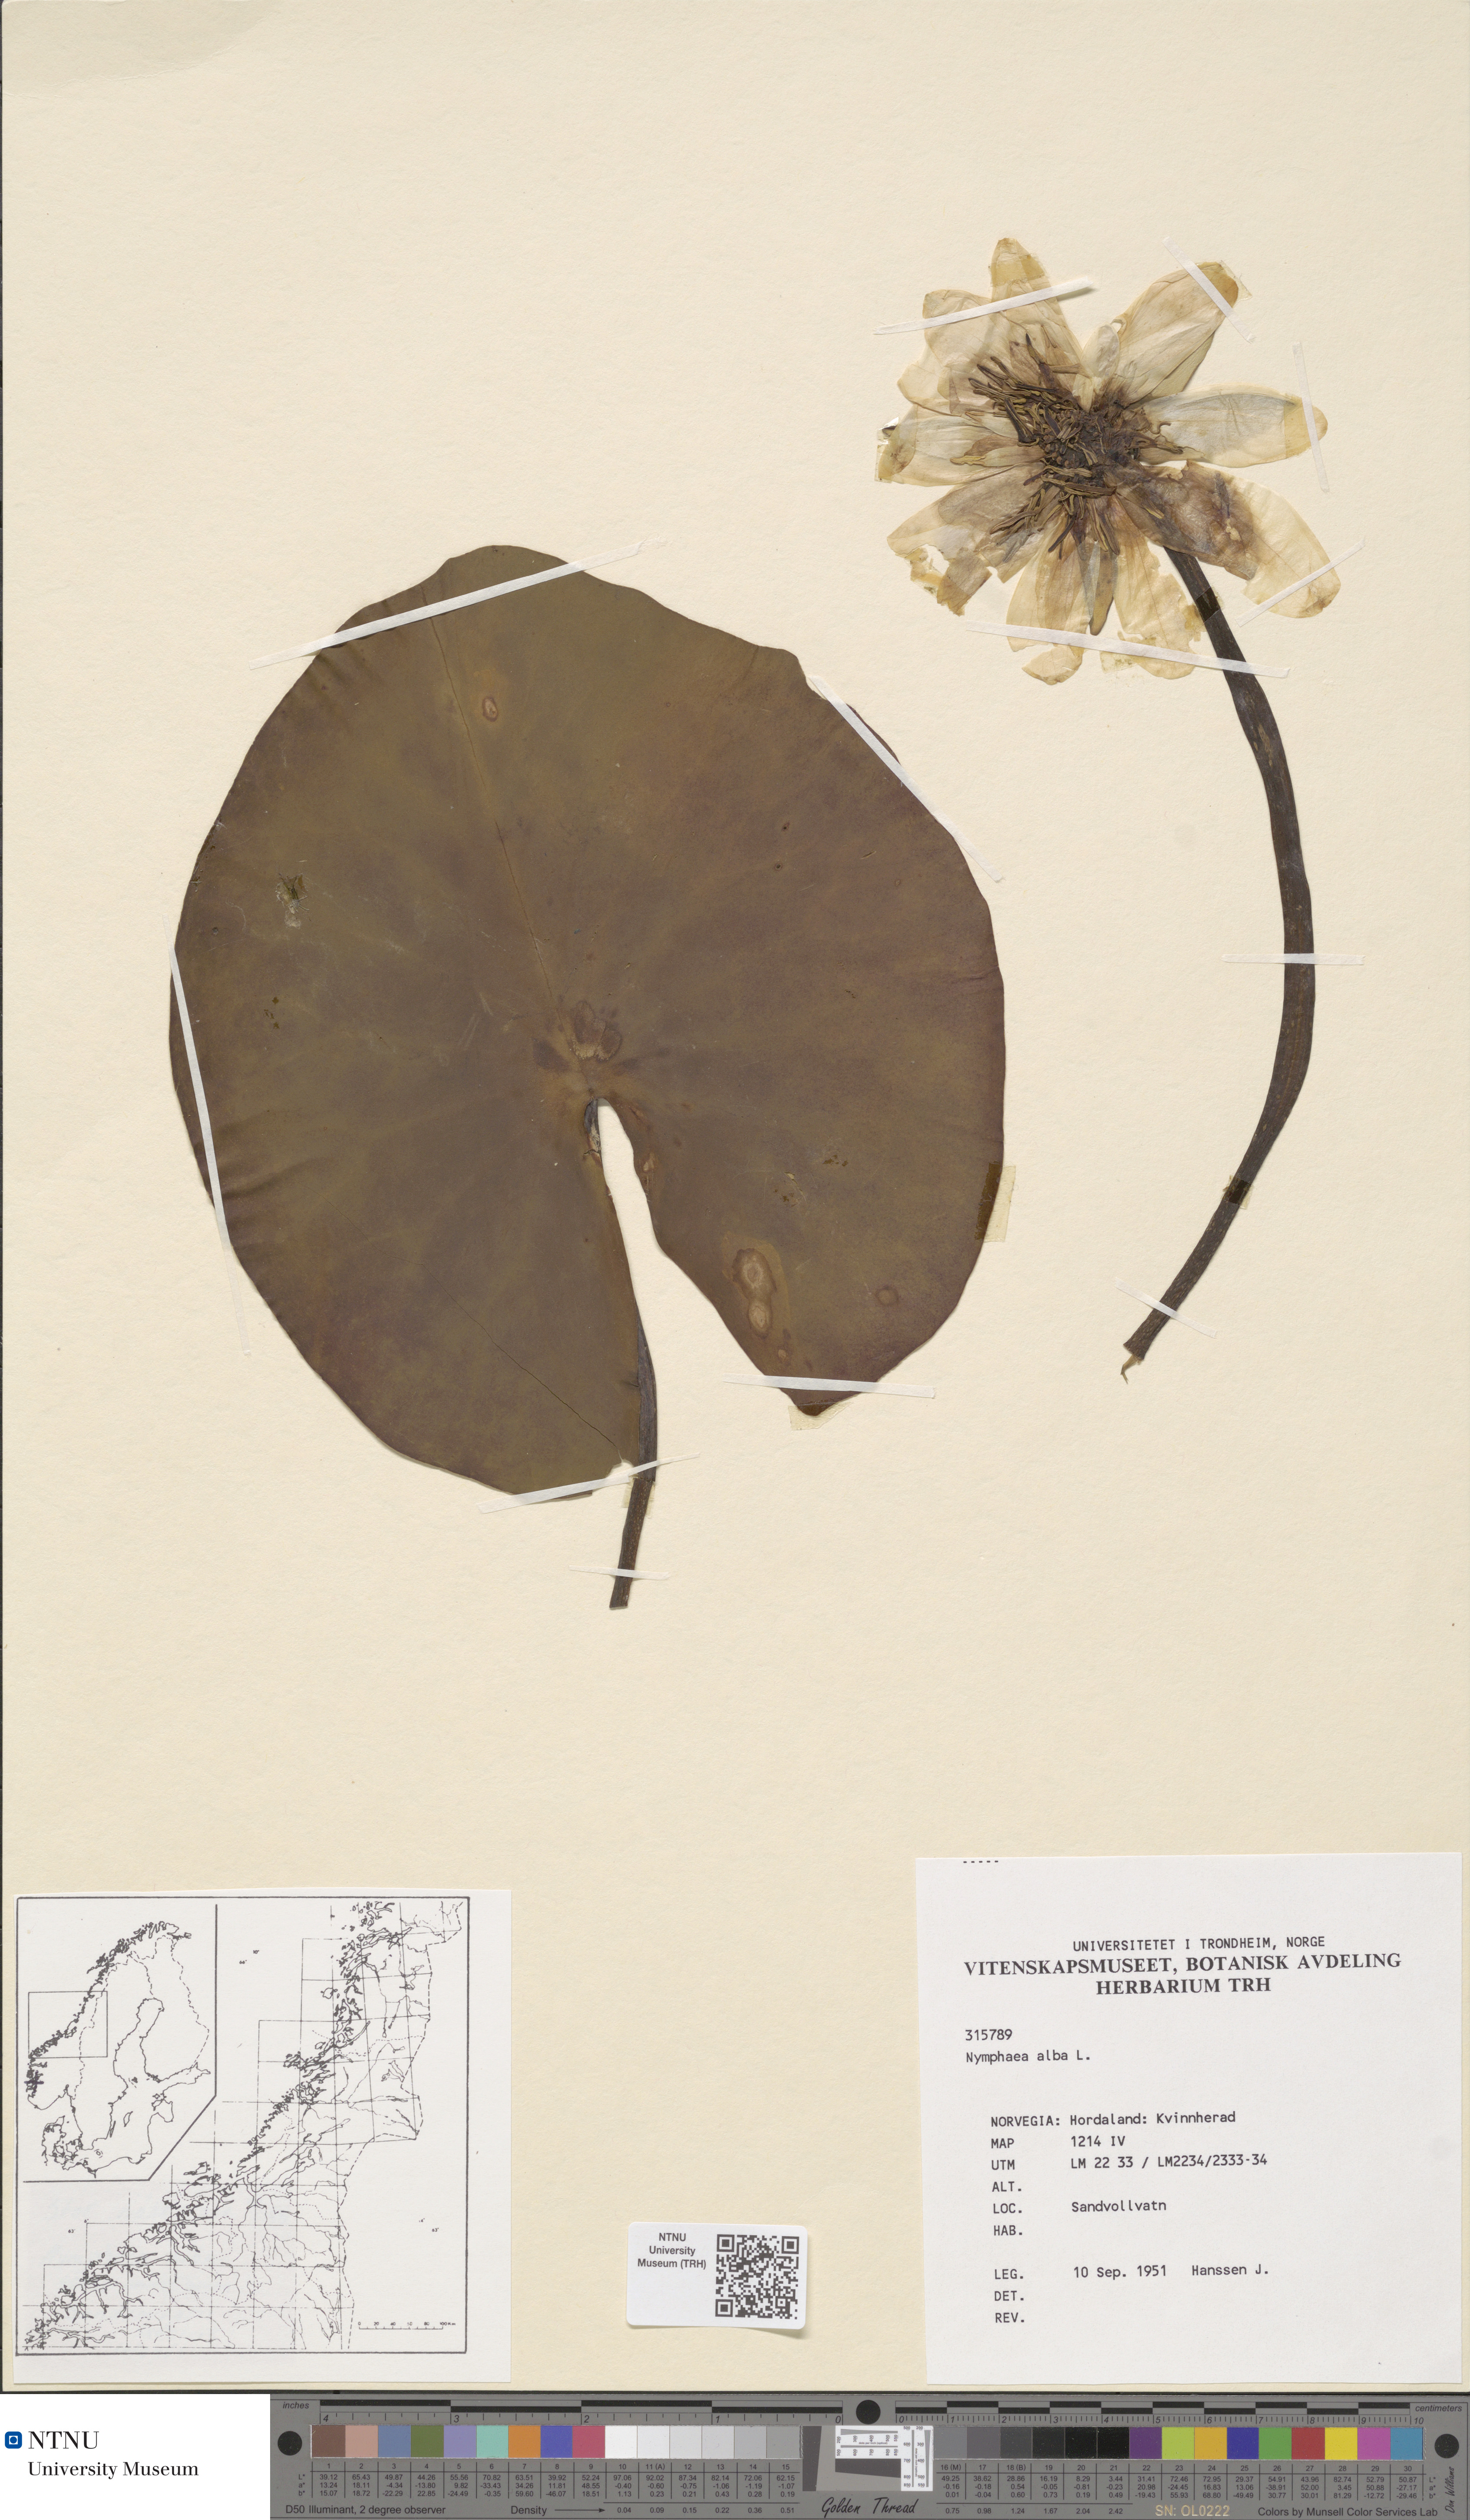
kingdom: Plantae
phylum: Tracheophyta
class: Magnoliopsida
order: Nymphaeales
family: Nymphaeaceae
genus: Nymphaea
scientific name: Nymphaea alba
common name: White water-lily
